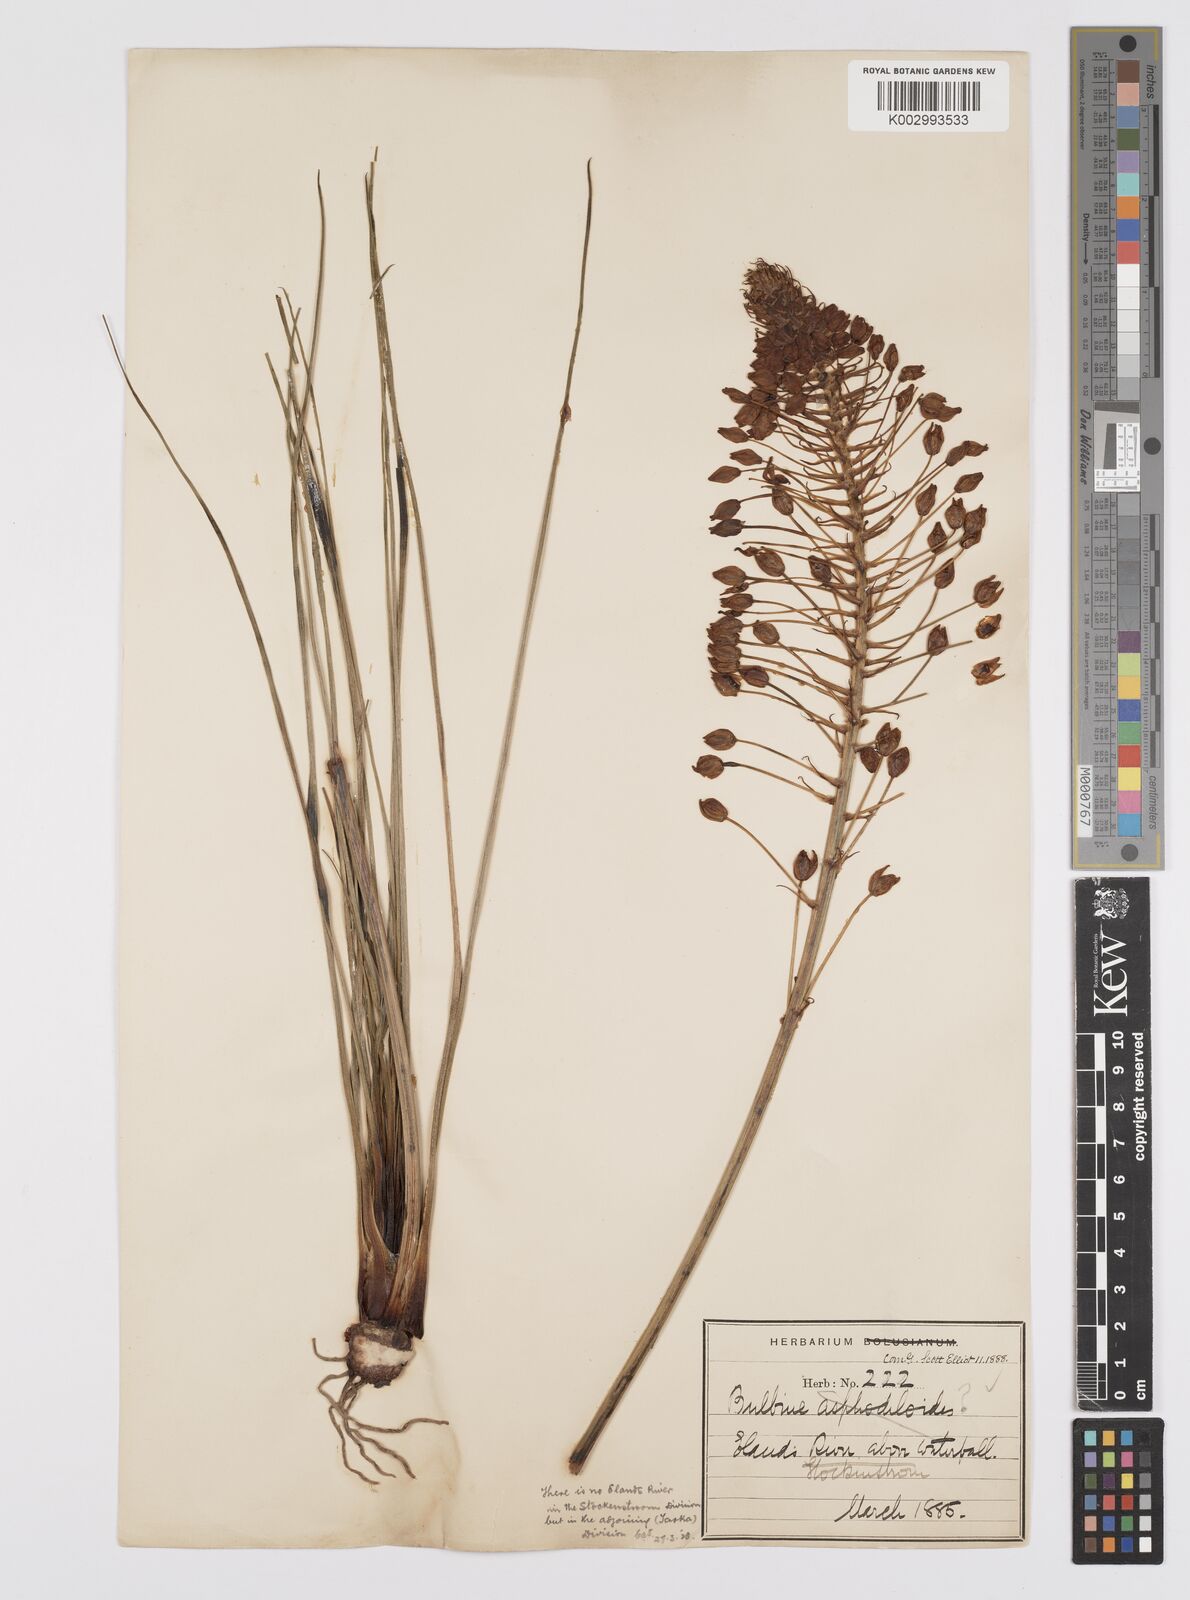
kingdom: Plantae
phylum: Tracheophyta
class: Liliopsida
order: Asparagales
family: Asphodelaceae
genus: Bulbine
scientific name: Bulbine asphodeloides
